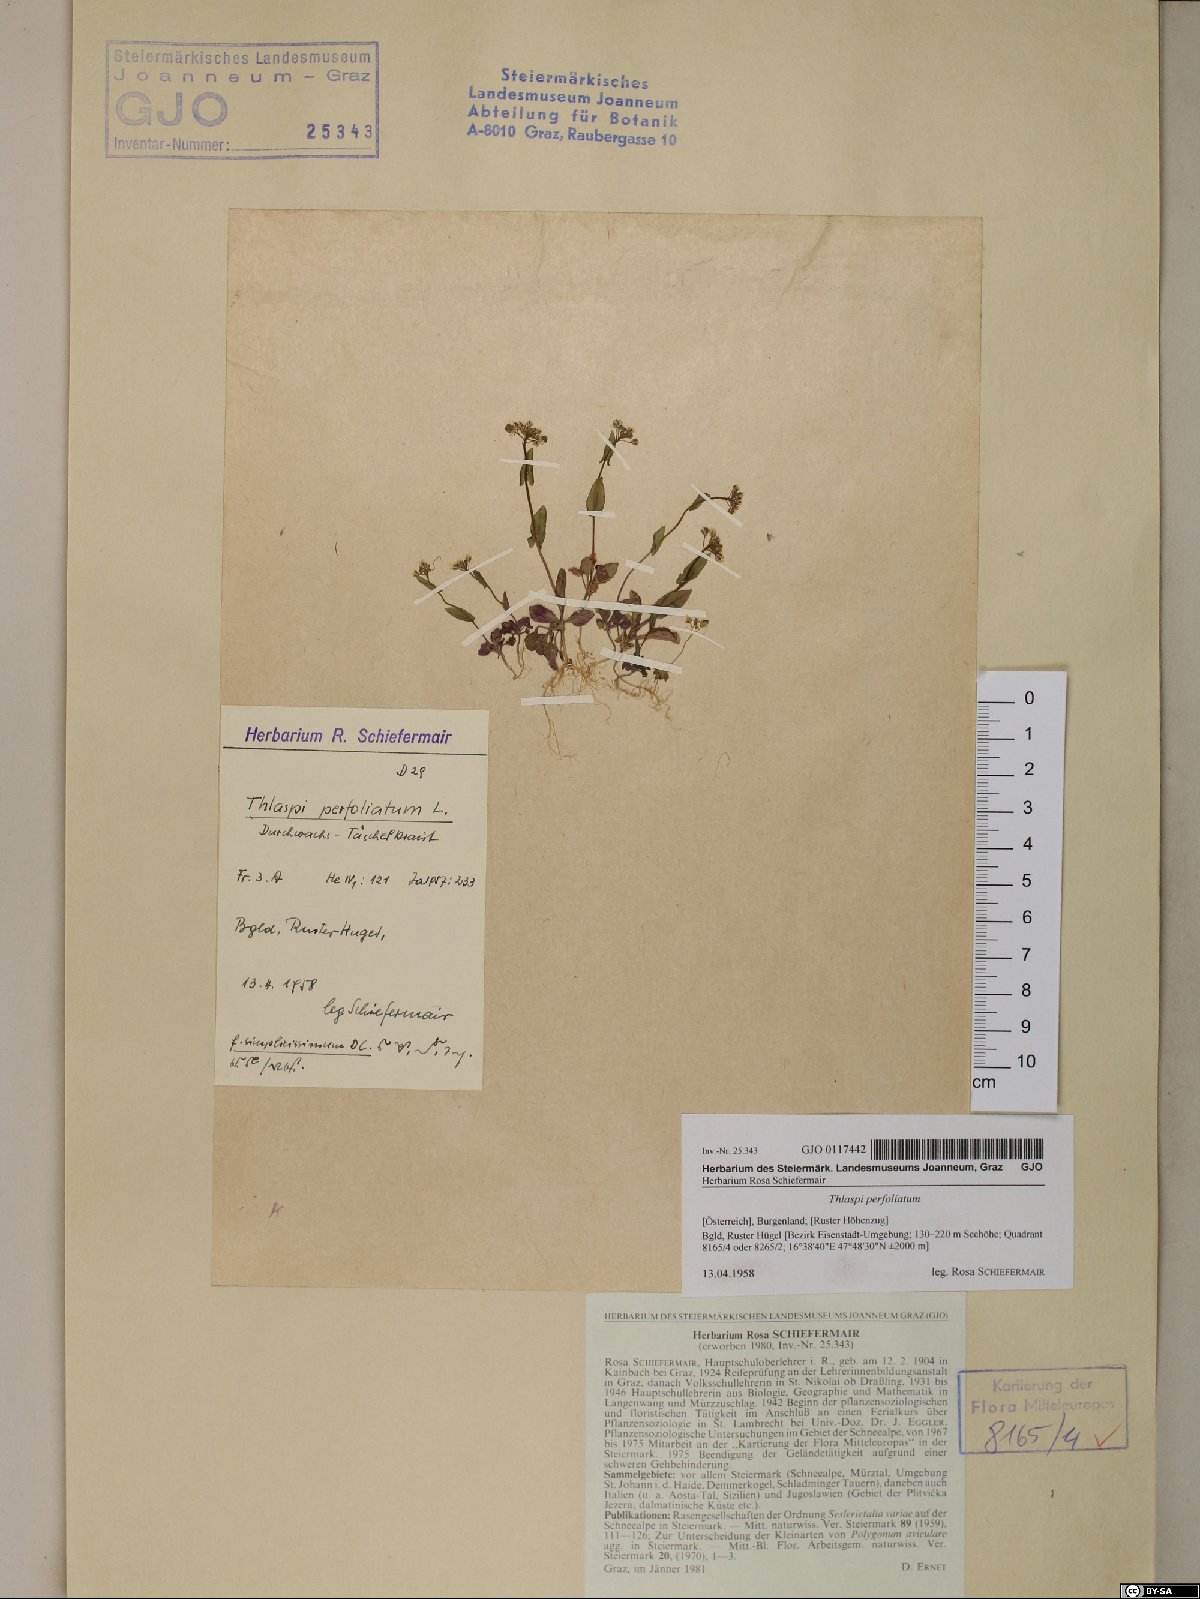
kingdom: Plantae
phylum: Tracheophyta
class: Magnoliopsida
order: Brassicales
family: Brassicaceae
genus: Noccaea
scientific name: Noccaea perfoliata
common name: Perfoliate pennycress
